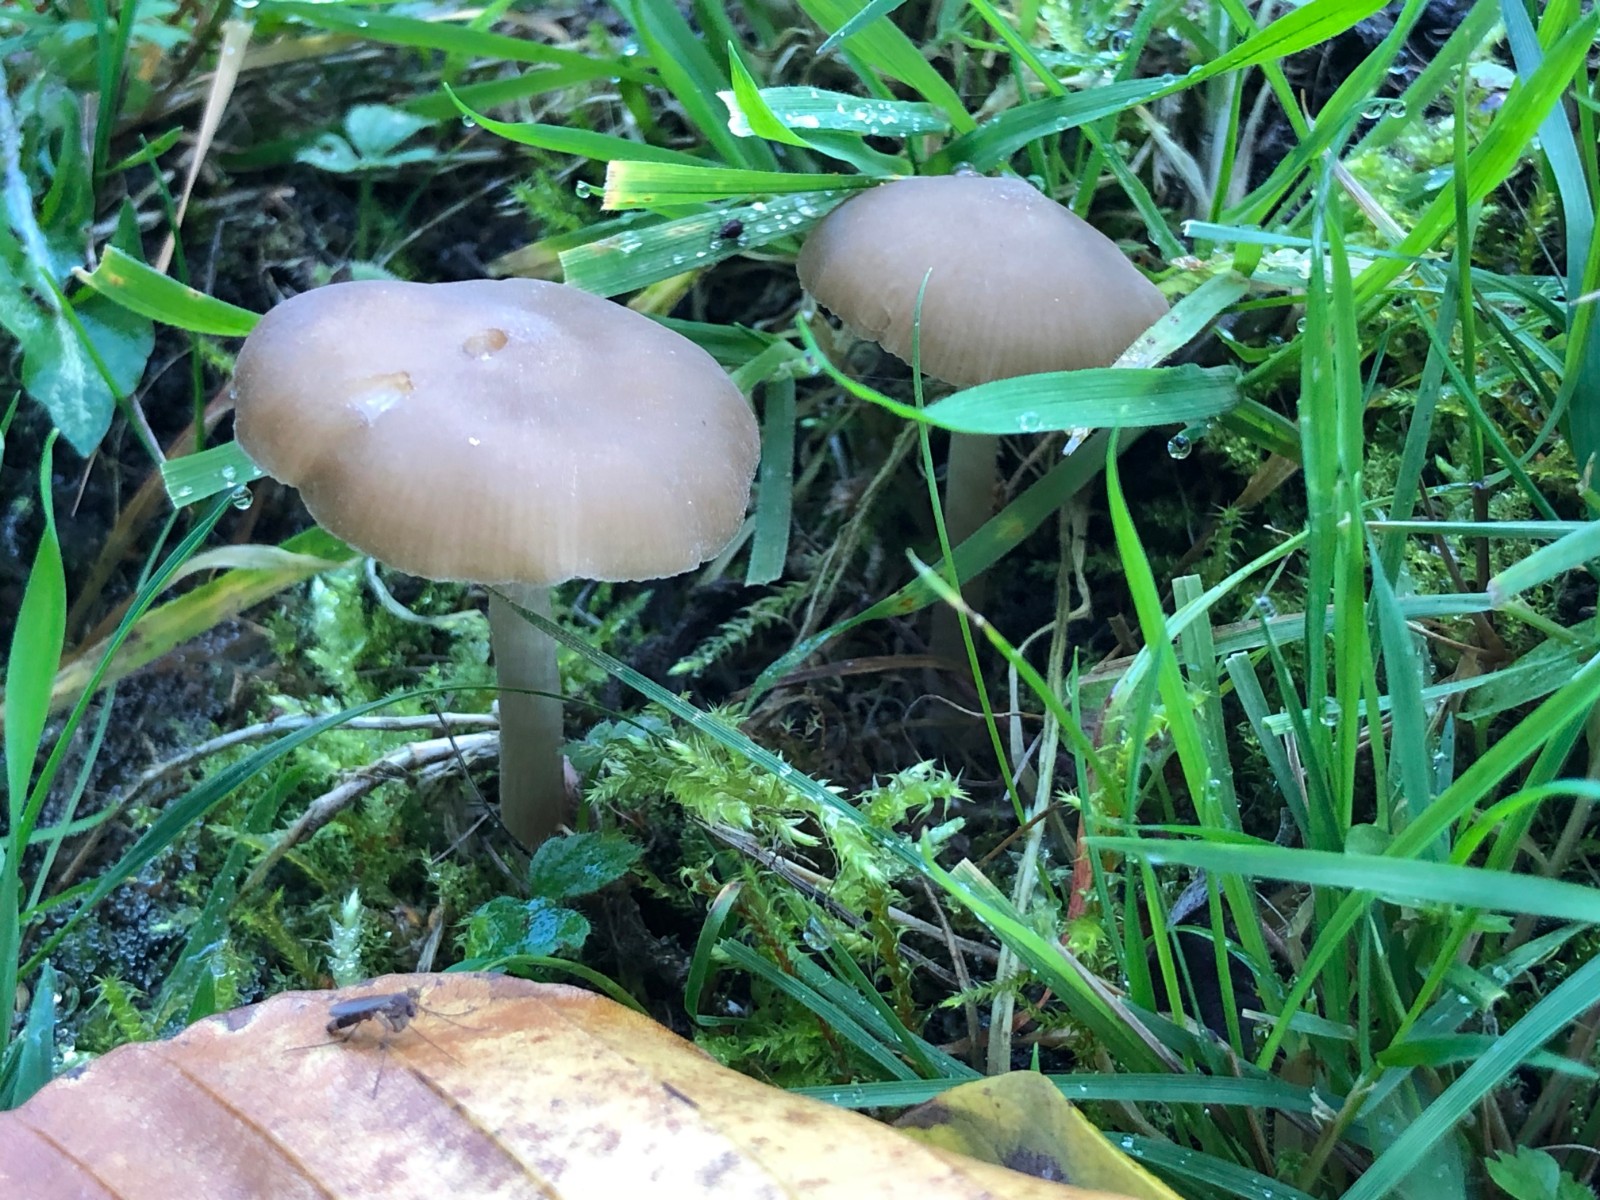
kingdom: Fungi
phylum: Basidiomycota
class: Agaricomycetes
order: Agaricales
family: Entolomataceae
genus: Entoloma
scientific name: Entoloma
